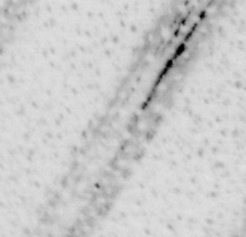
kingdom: Animalia
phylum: Chordata
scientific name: Chordata
